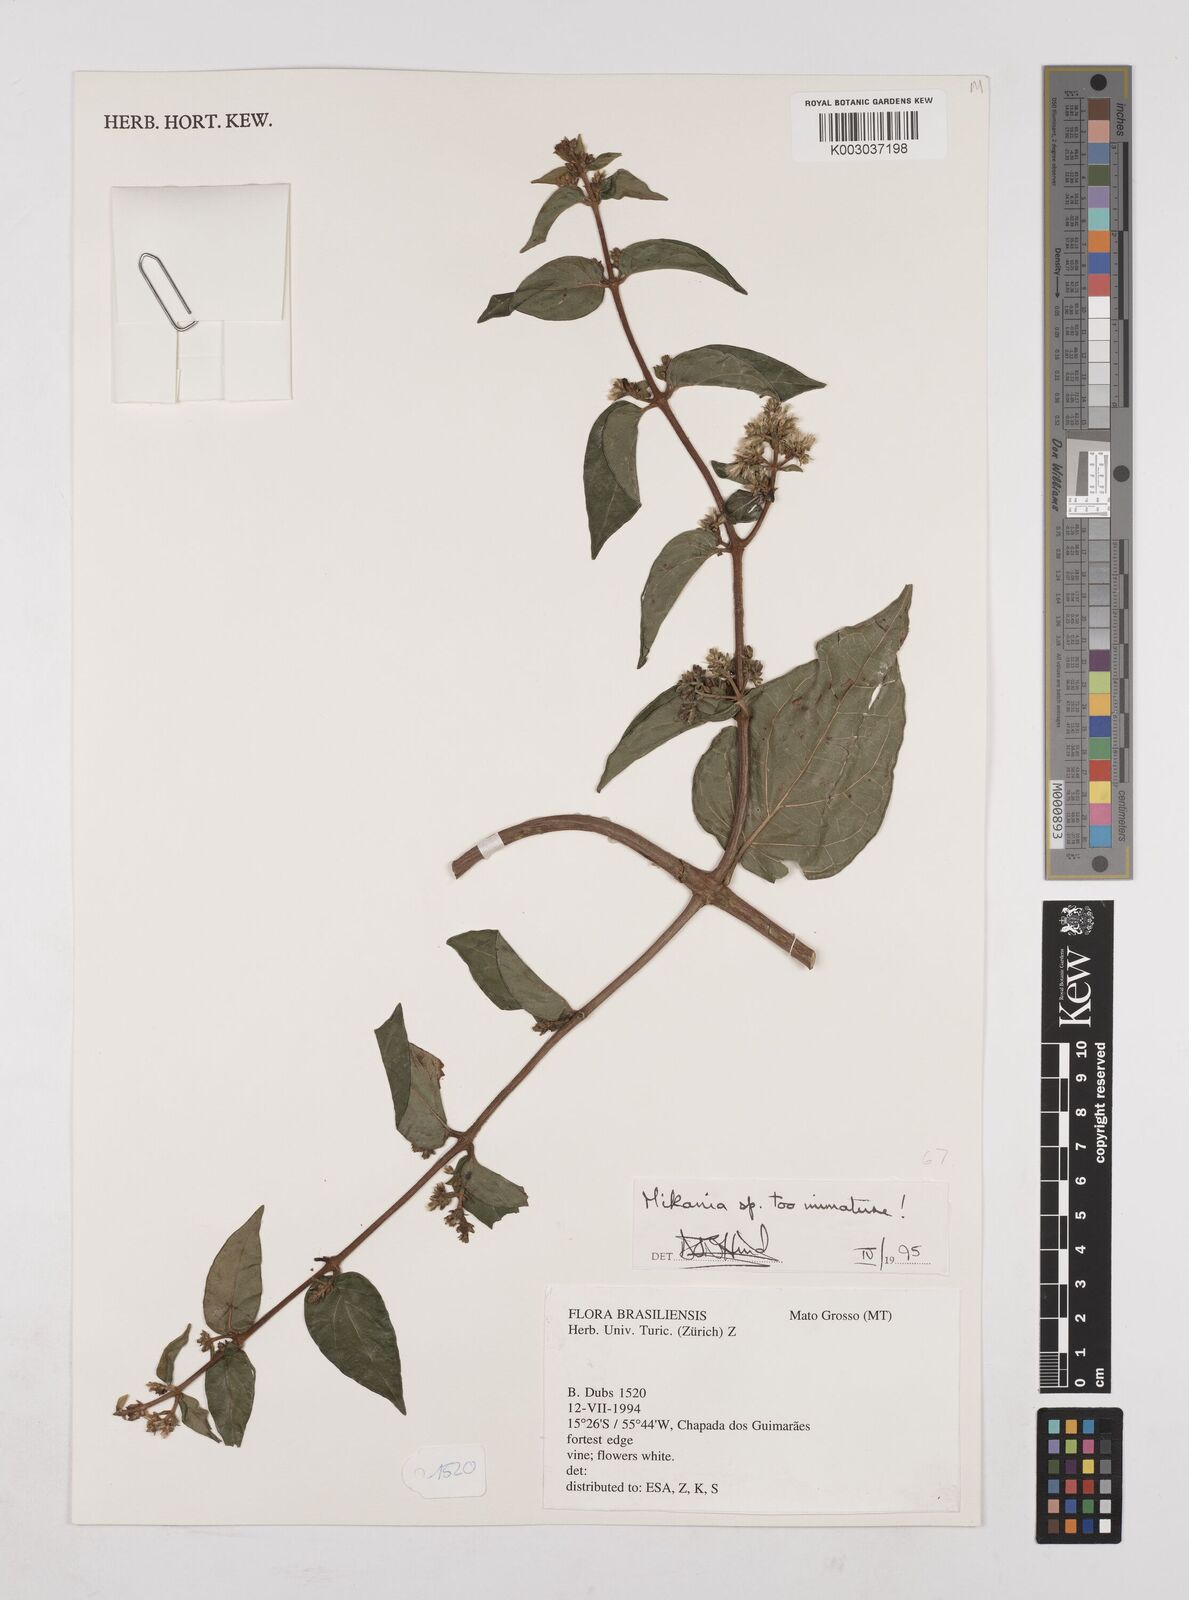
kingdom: Plantae
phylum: Tracheophyta
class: Magnoliopsida
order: Asterales
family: Asteraceae
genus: Mikania
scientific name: Mikania
